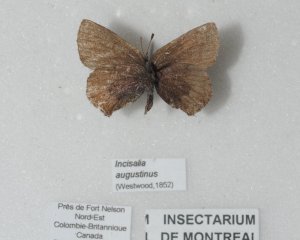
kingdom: Animalia
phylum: Arthropoda
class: Insecta
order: Lepidoptera
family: Lycaenidae
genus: Incisalia
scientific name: Incisalia irioides
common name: Brown Elfin
